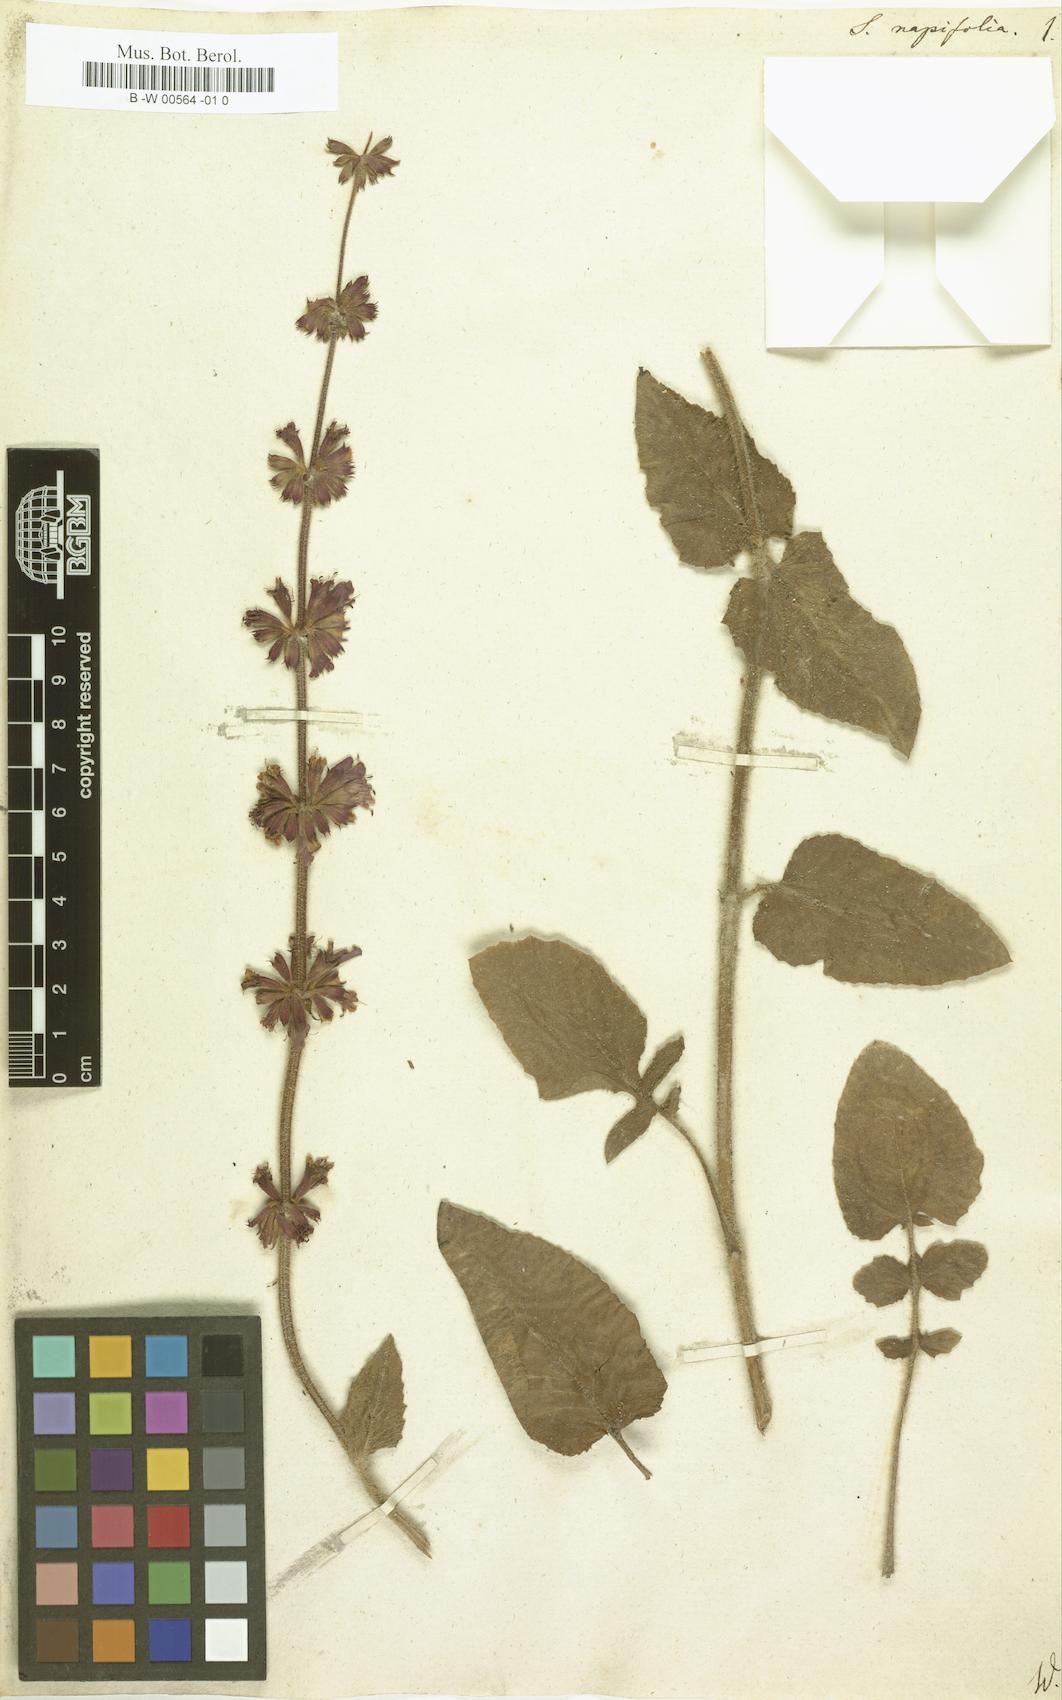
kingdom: Plantae
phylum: Tracheophyta
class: Magnoliopsida
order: Lamiales
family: Lamiaceae
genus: Salvia
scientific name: Salvia napifolia
